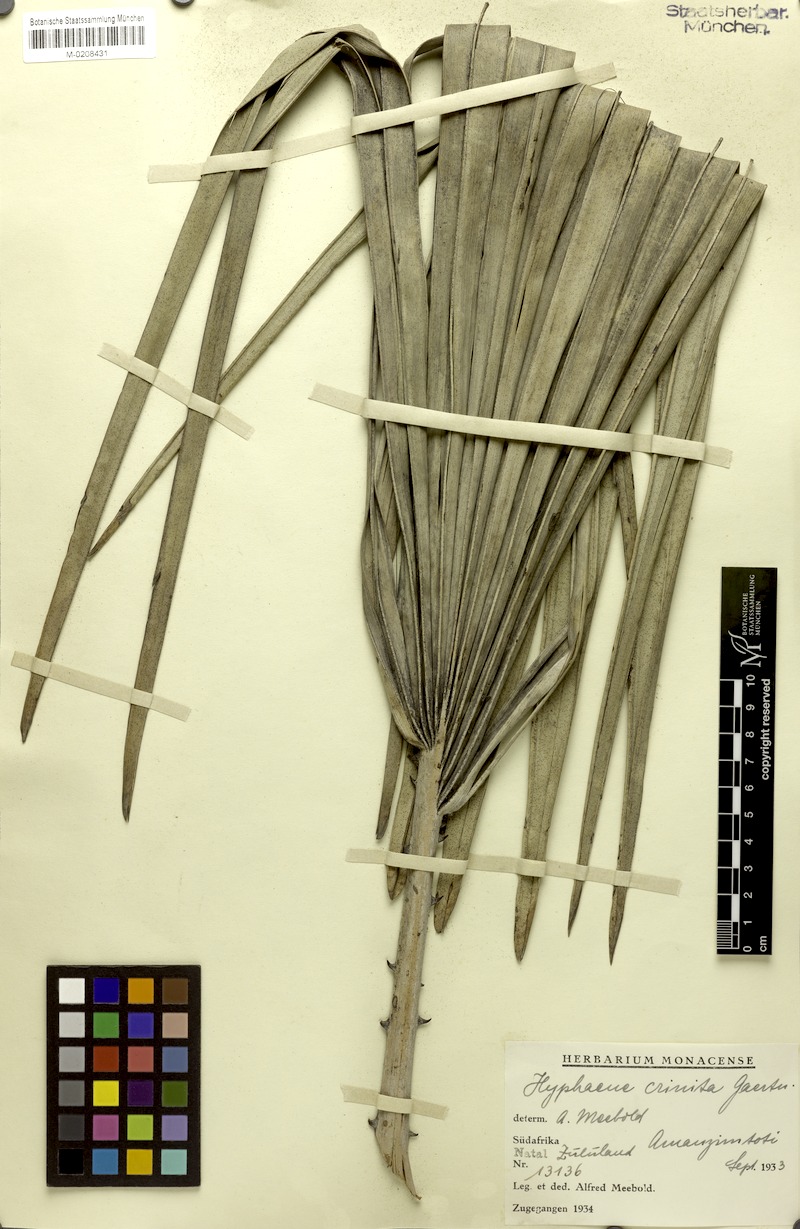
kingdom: Plantae
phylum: Tracheophyta
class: Liliopsida
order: Arecales
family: Arecaceae
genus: Hyphaene
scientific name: Hyphaene thebaica
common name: Doum palm
